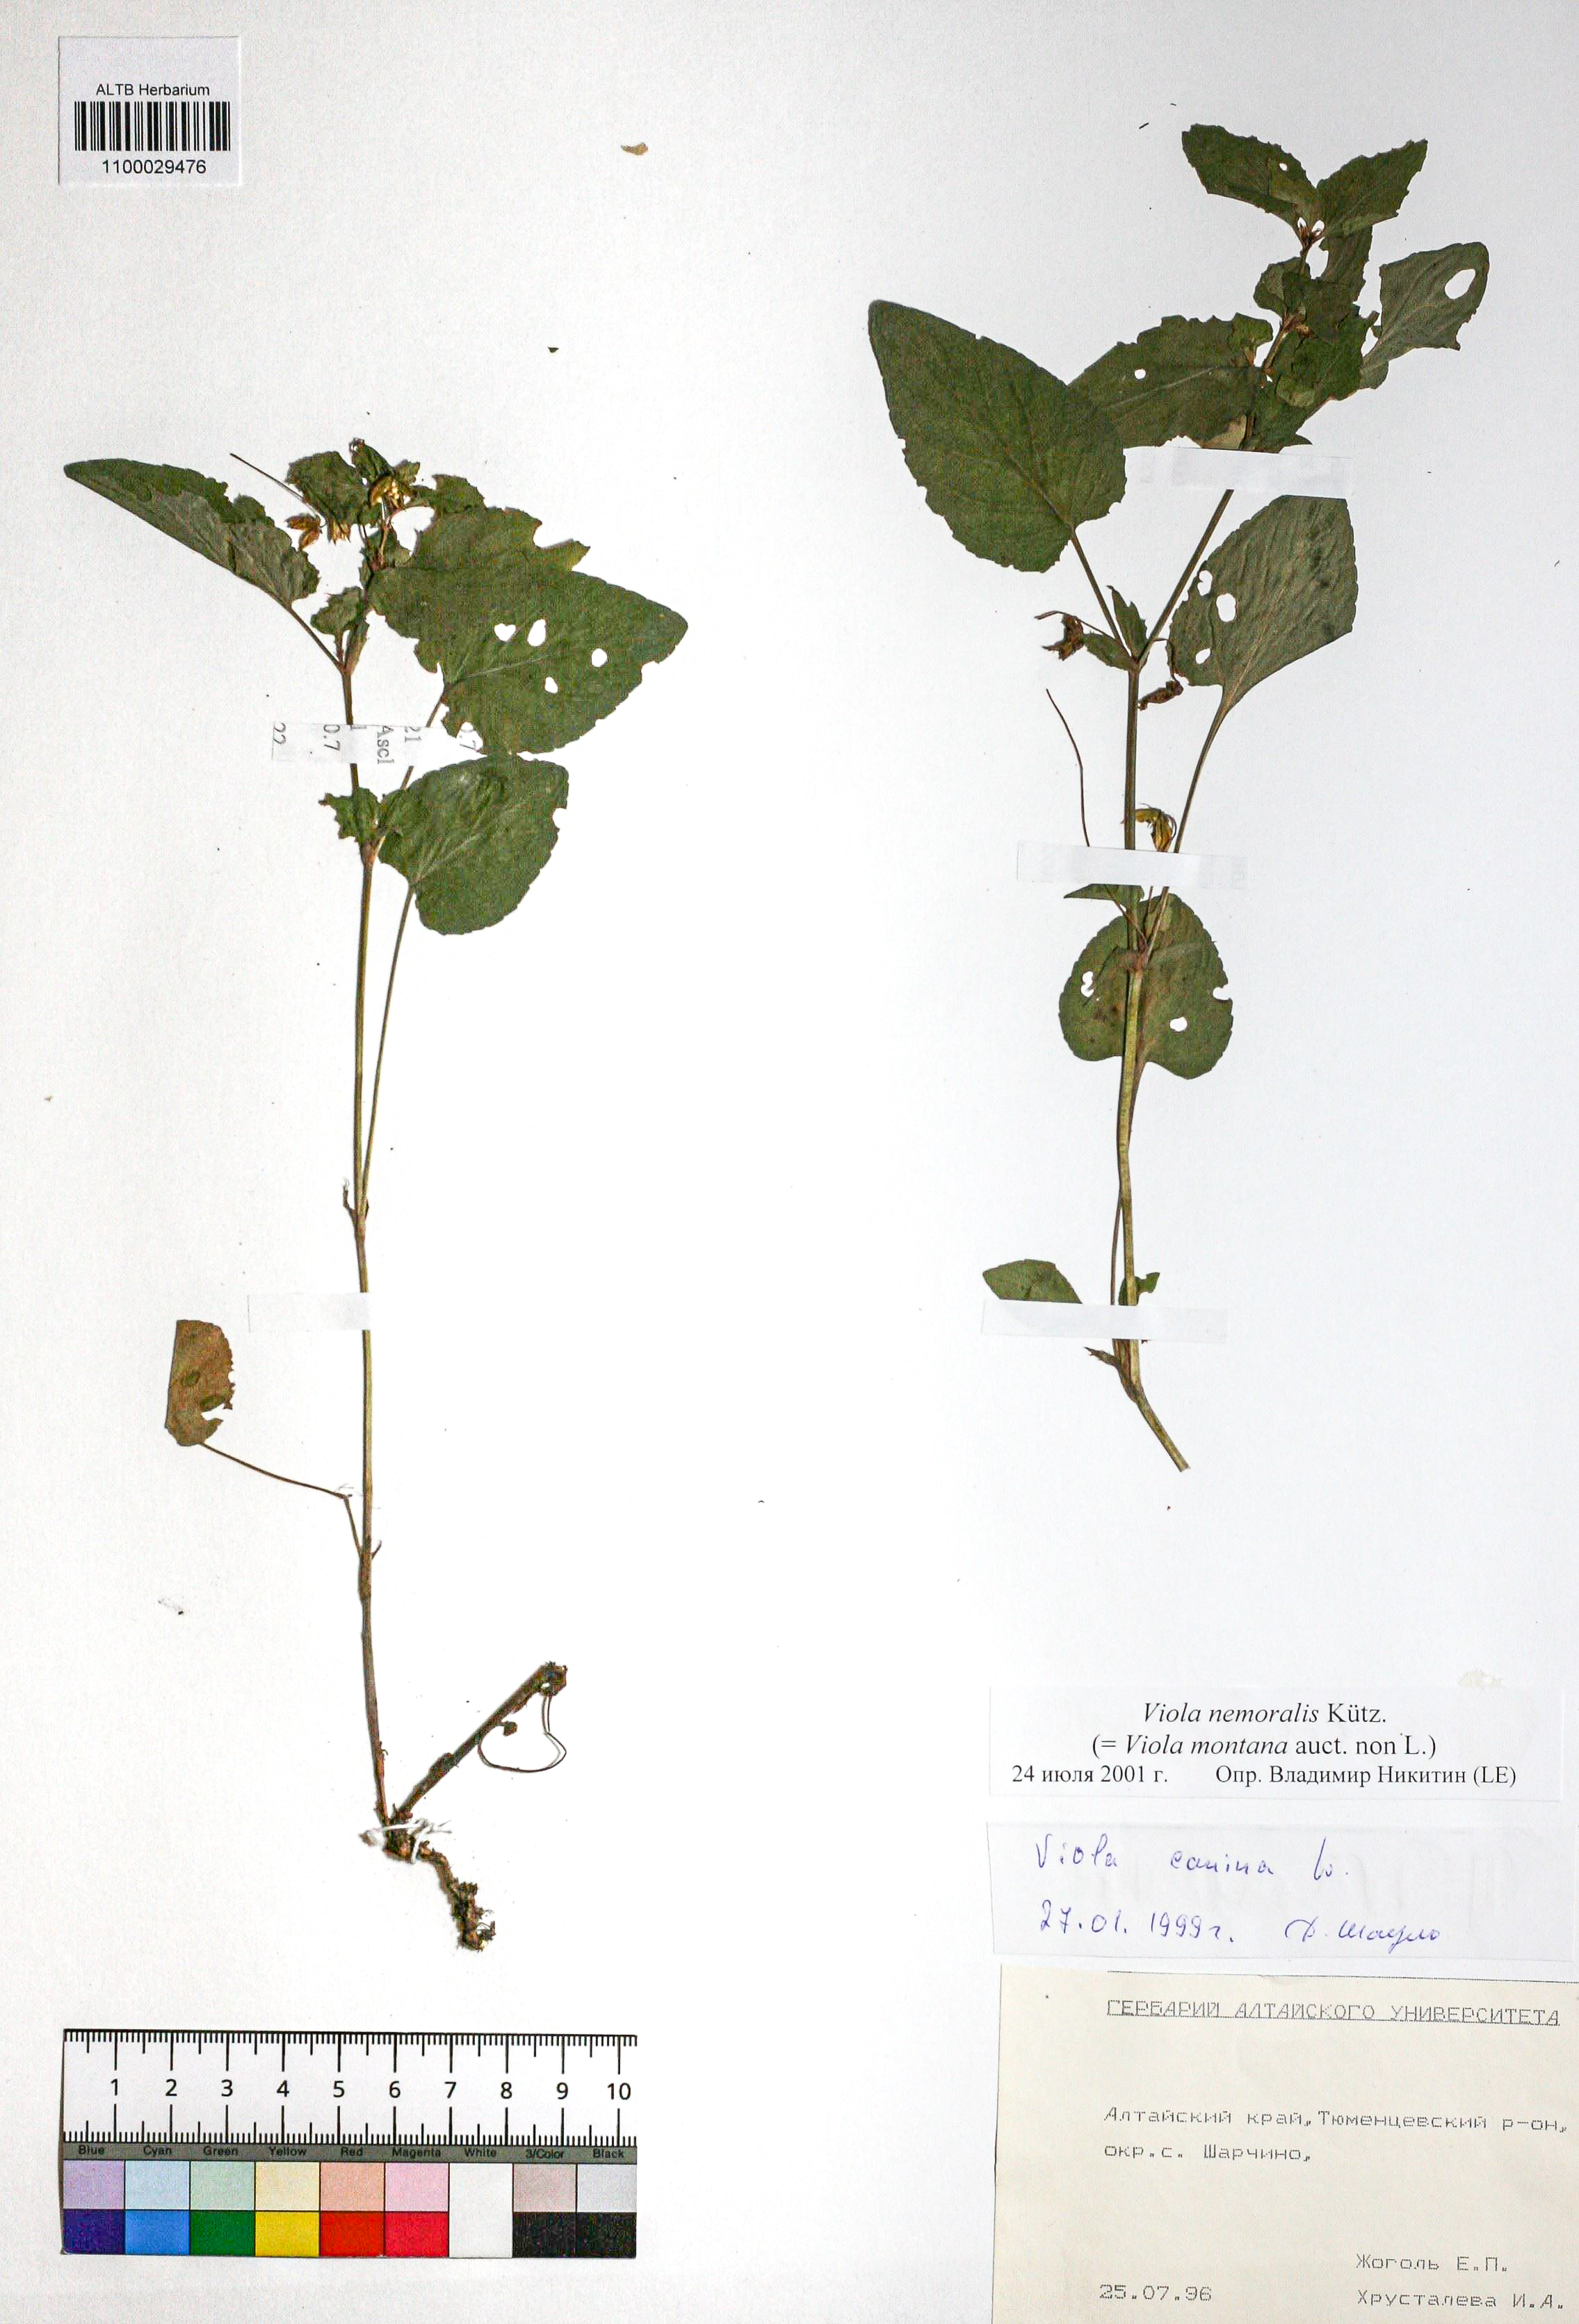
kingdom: Plantae
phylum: Tracheophyta
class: Magnoliopsida
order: Malpighiales
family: Violaceae
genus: Viola
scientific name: Viola ruppii
